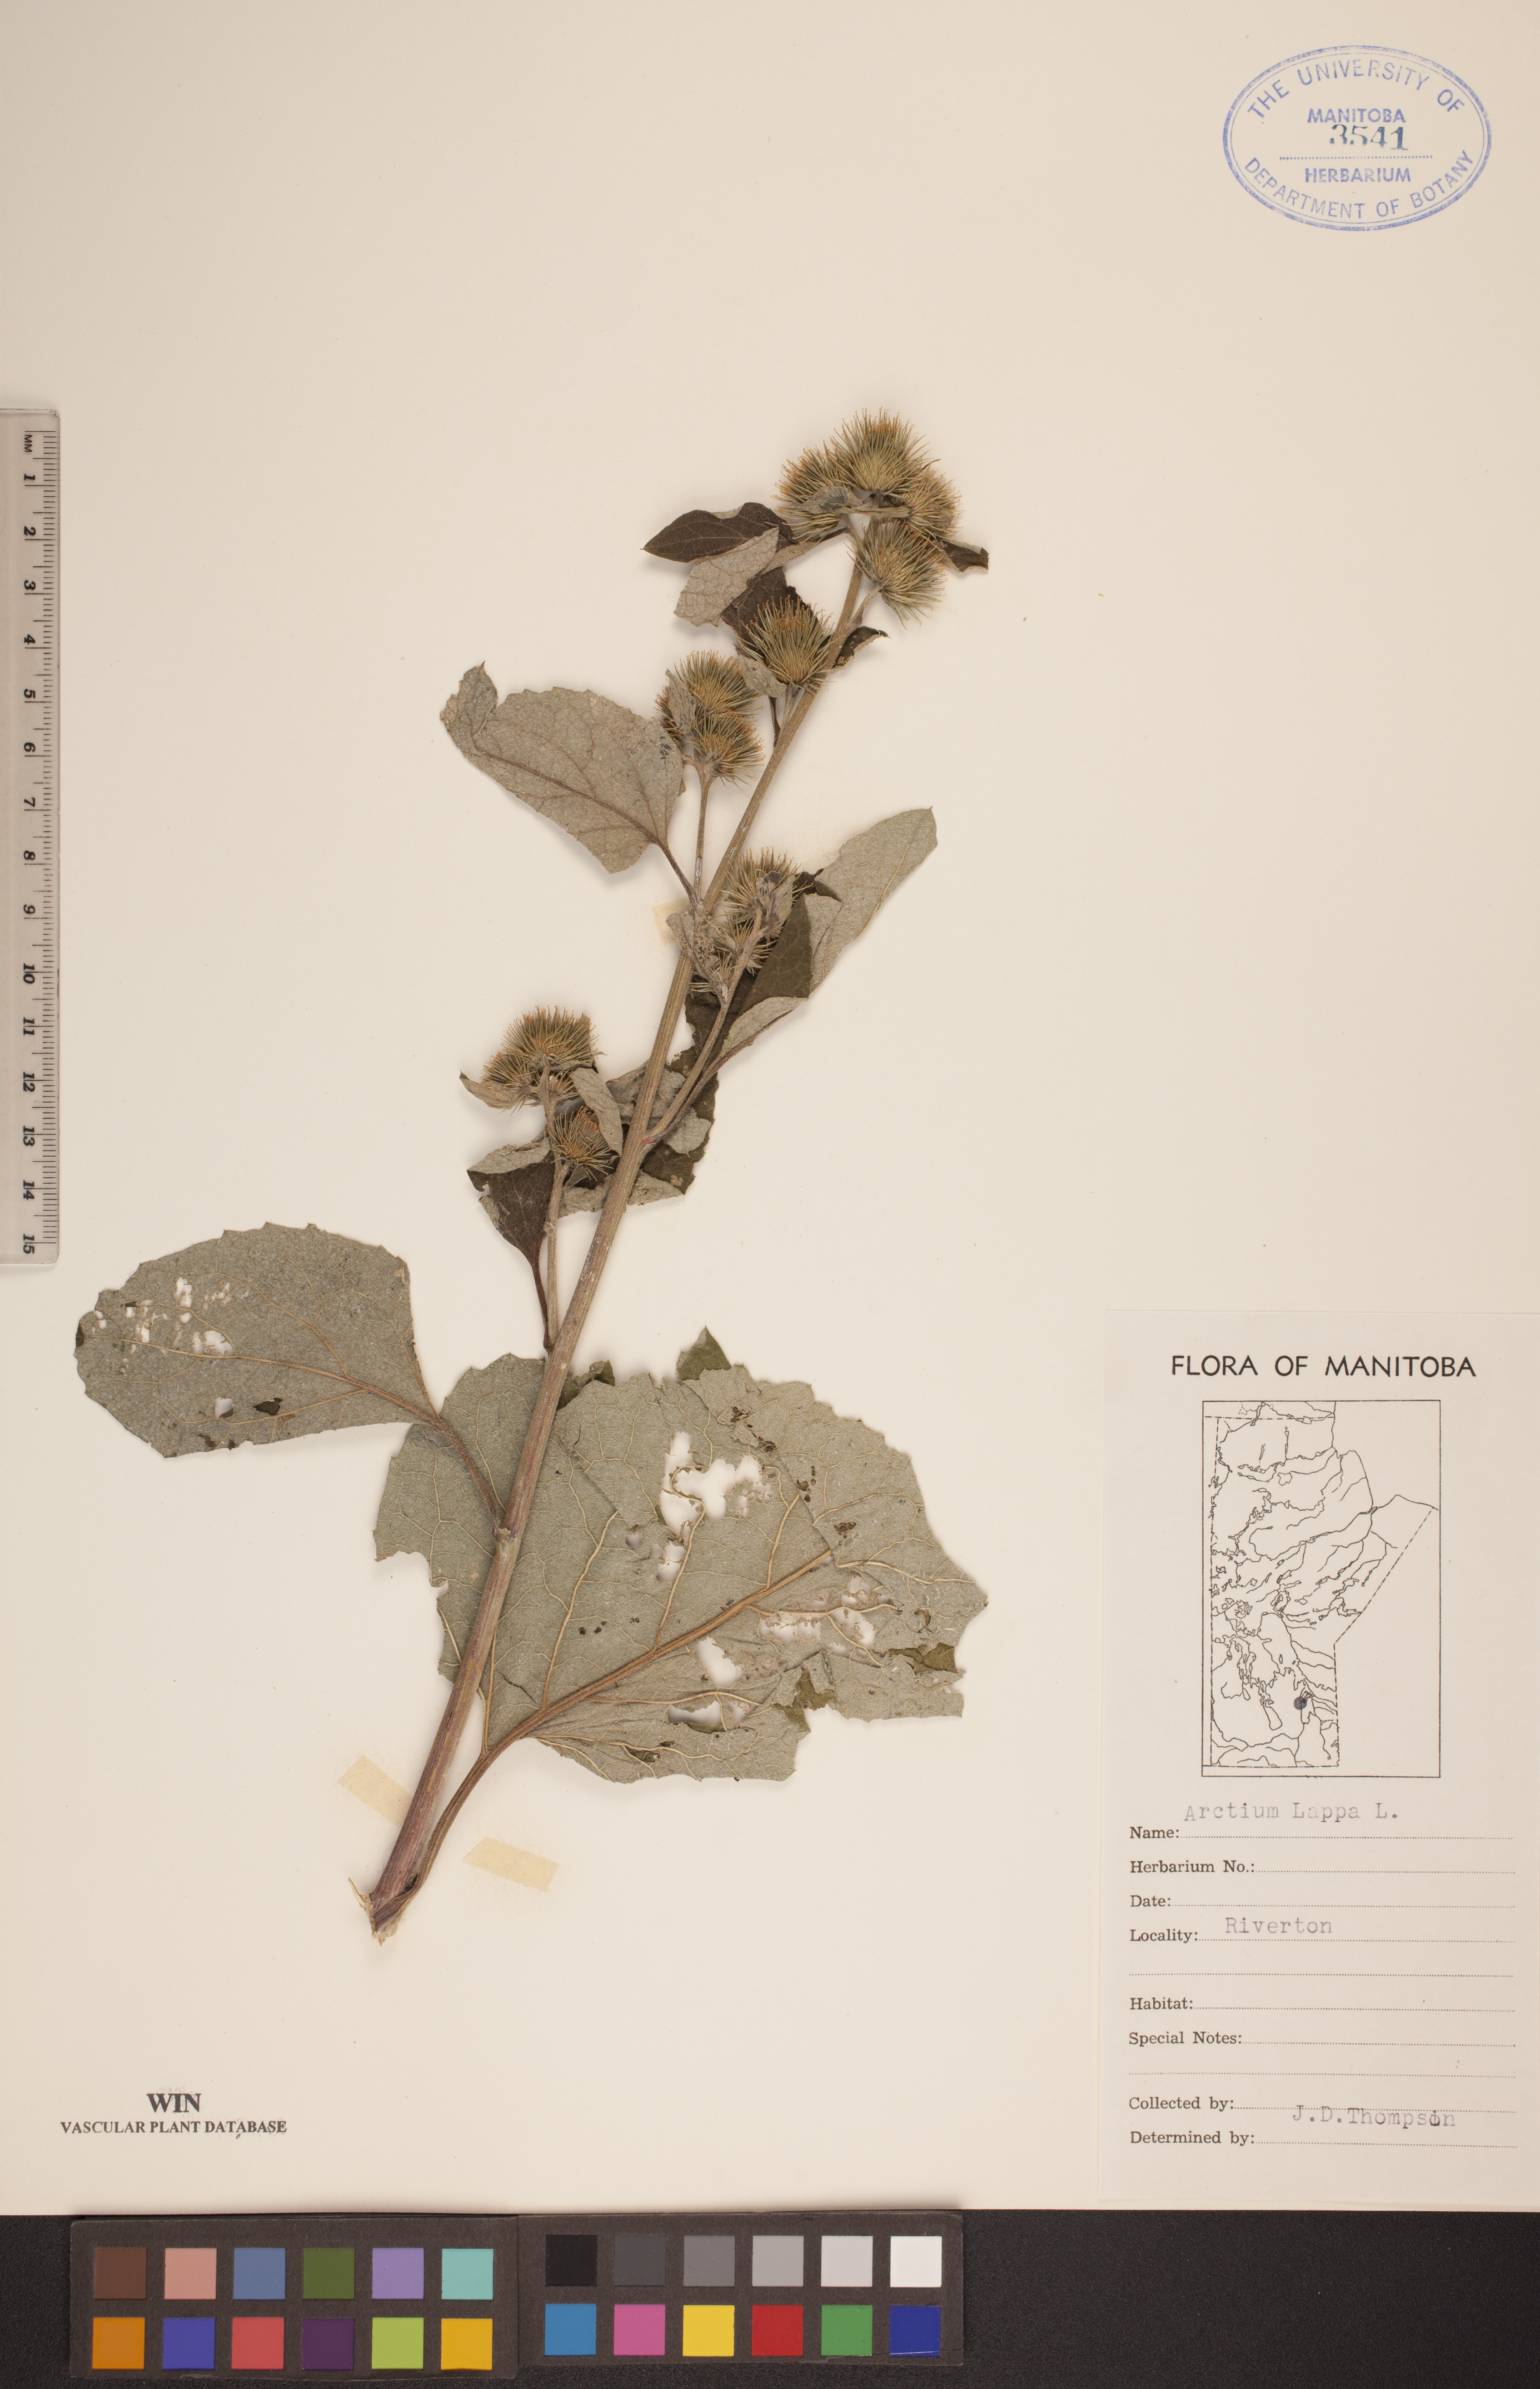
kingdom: Plantae
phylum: Tracheophyta
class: Magnoliopsida
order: Asterales
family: Asteraceae
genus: Arctium
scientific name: Arctium lappa
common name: Greater burdock
